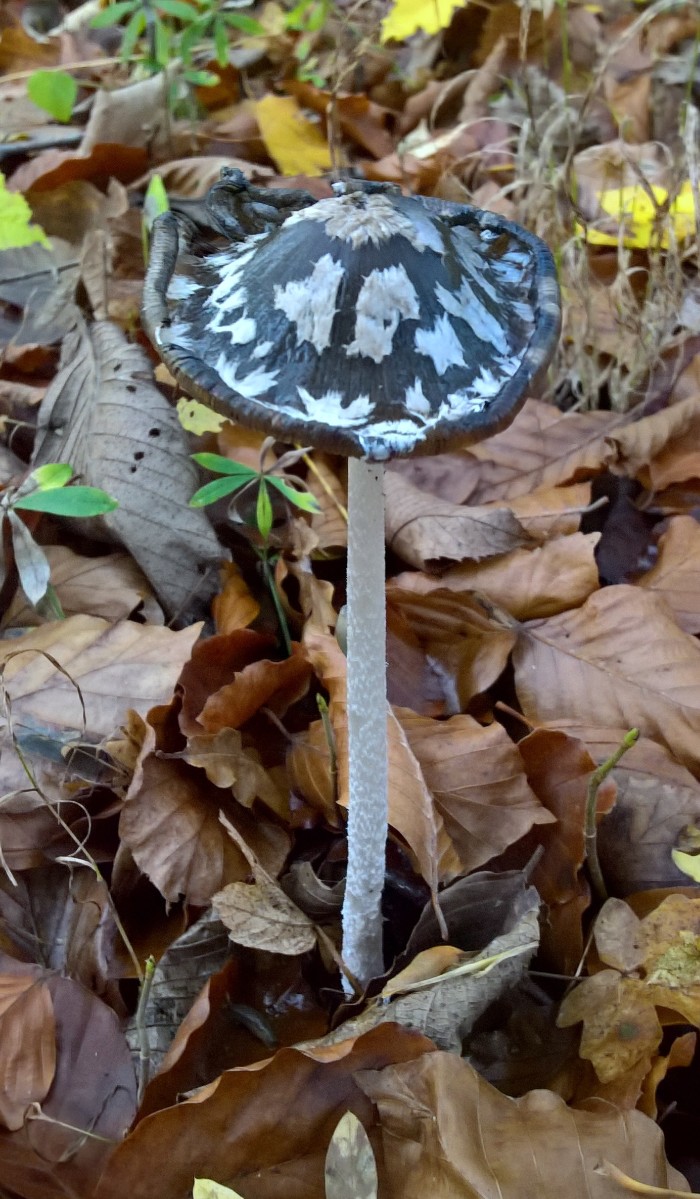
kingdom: Fungi
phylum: Basidiomycota
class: Agaricomycetes
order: Agaricales
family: Psathyrellaceae
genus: Coprinopsis
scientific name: Coprinopsis picacea
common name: skade-blækhat
